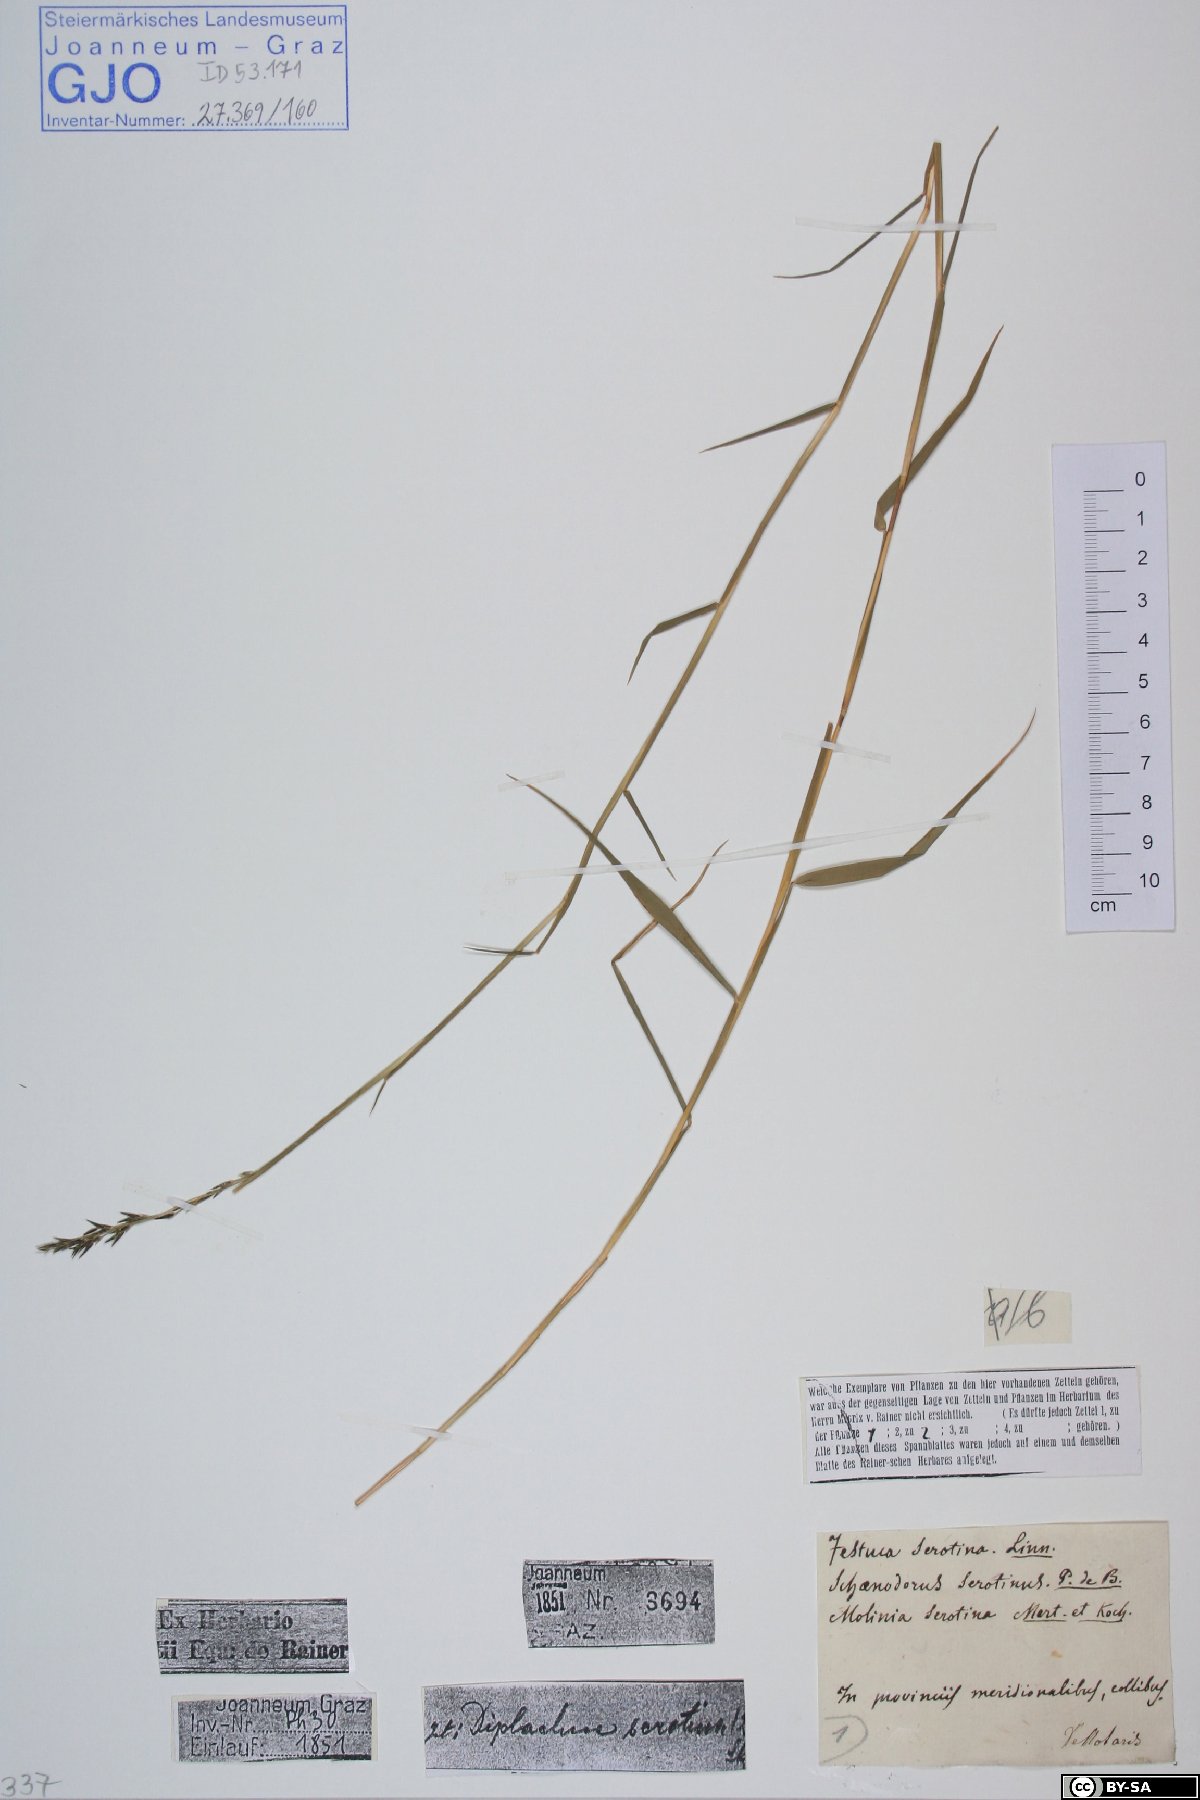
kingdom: Plantae
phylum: Tracheophyta
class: Liliopsida
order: Poales
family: Poaceae
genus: Cleistogenes
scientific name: Cleistogenes serotina
